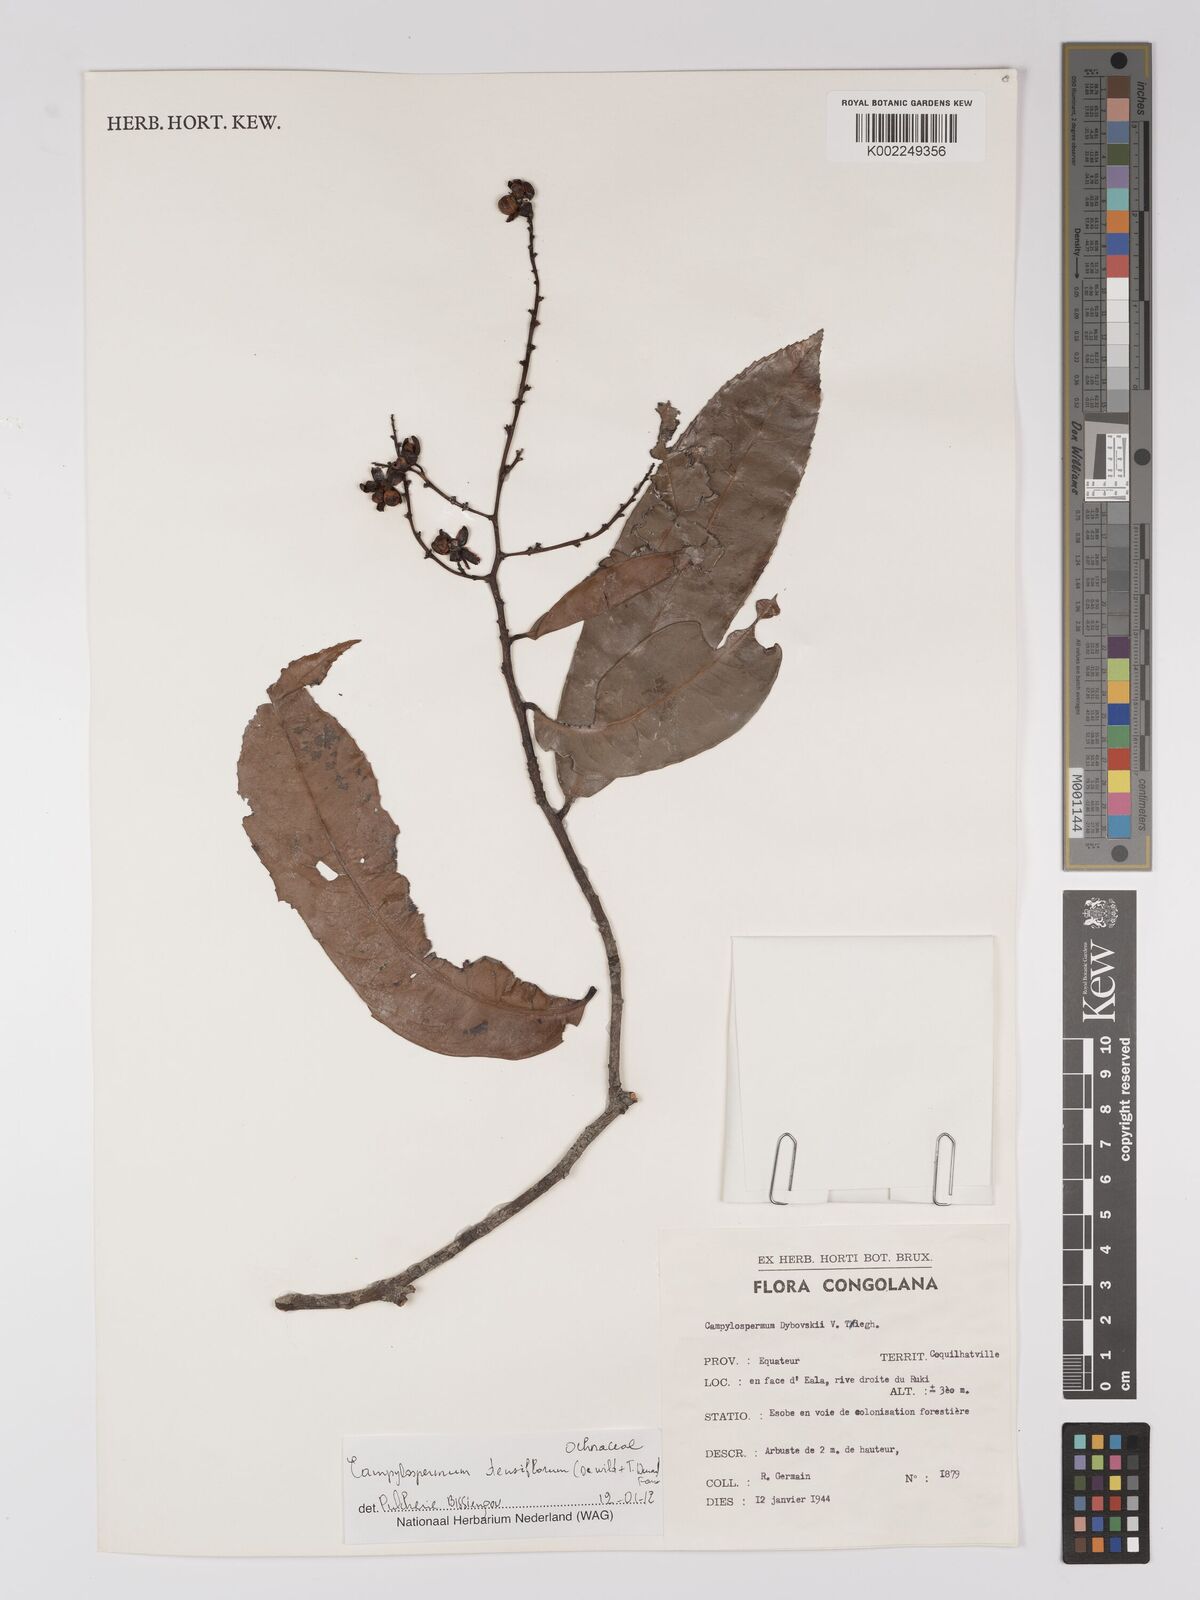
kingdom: Plantae
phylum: Tracheophyta
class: Magnoliopsida
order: Malpighiales
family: Ochnaceae
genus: Gomphia
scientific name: Gomphia densiflora
